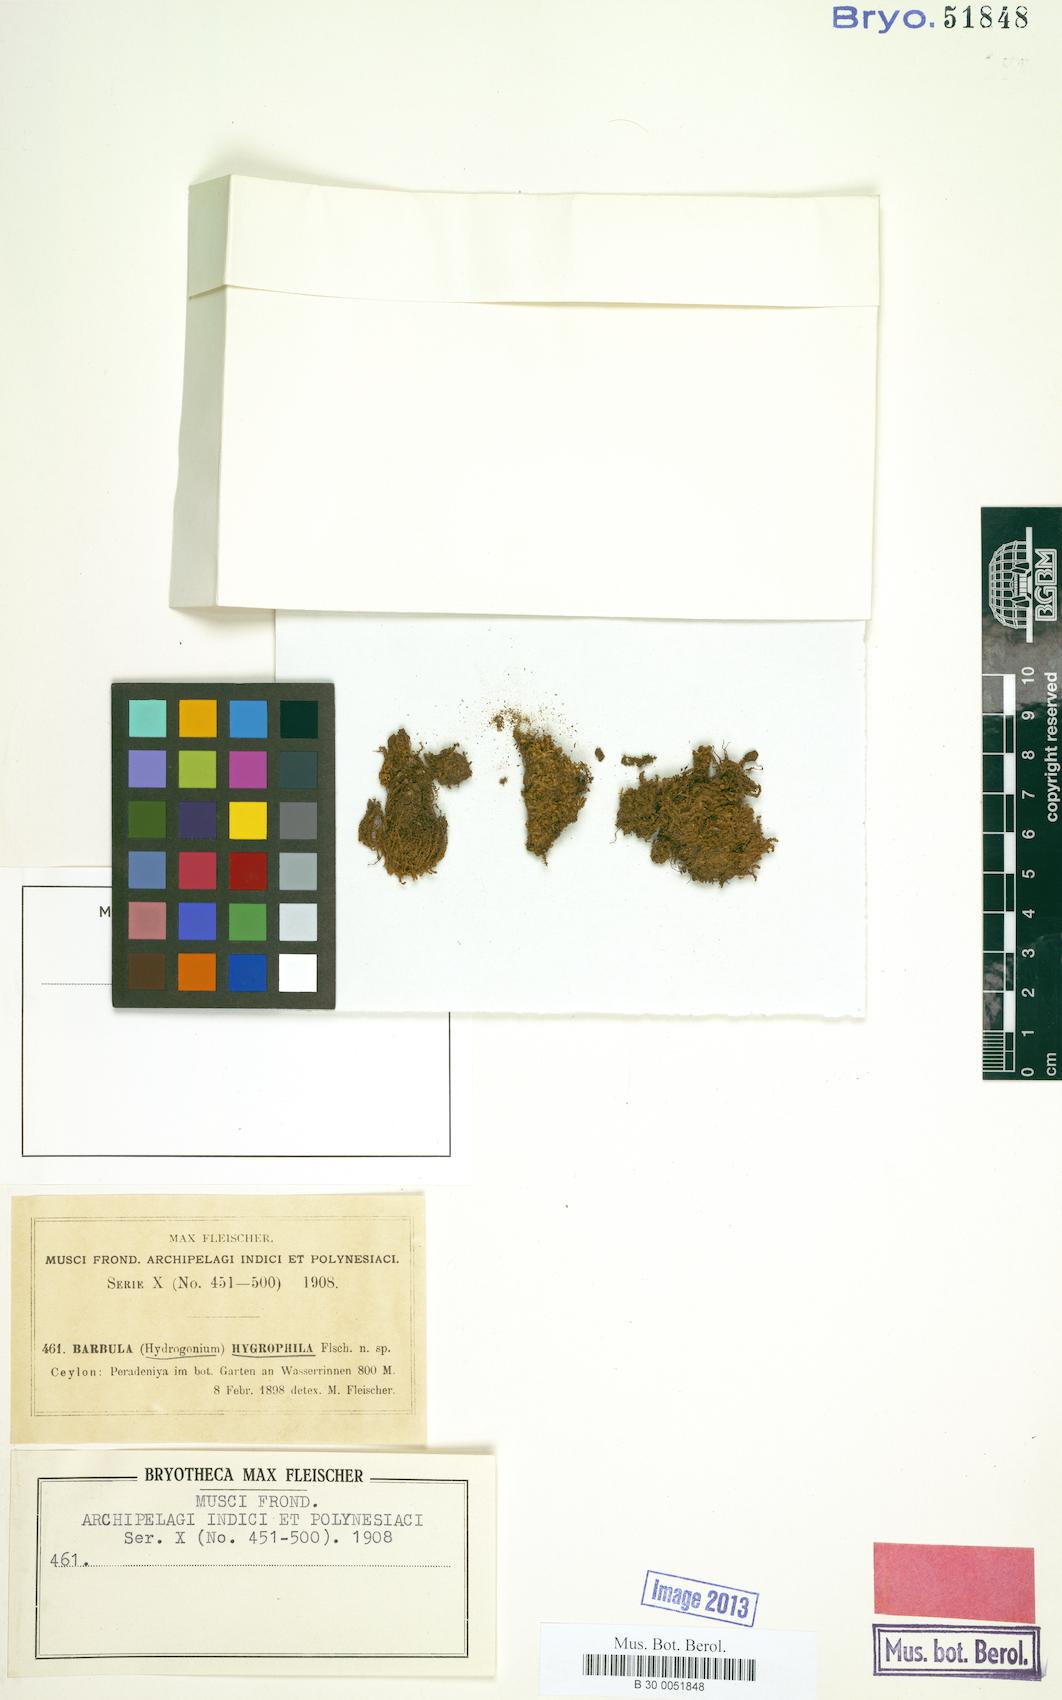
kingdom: Plantae
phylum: Bryophyta
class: Bryopsida
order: Pottiales
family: Pottiaceae
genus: Hydrogonium
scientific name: Hydrogonium consanguineum
